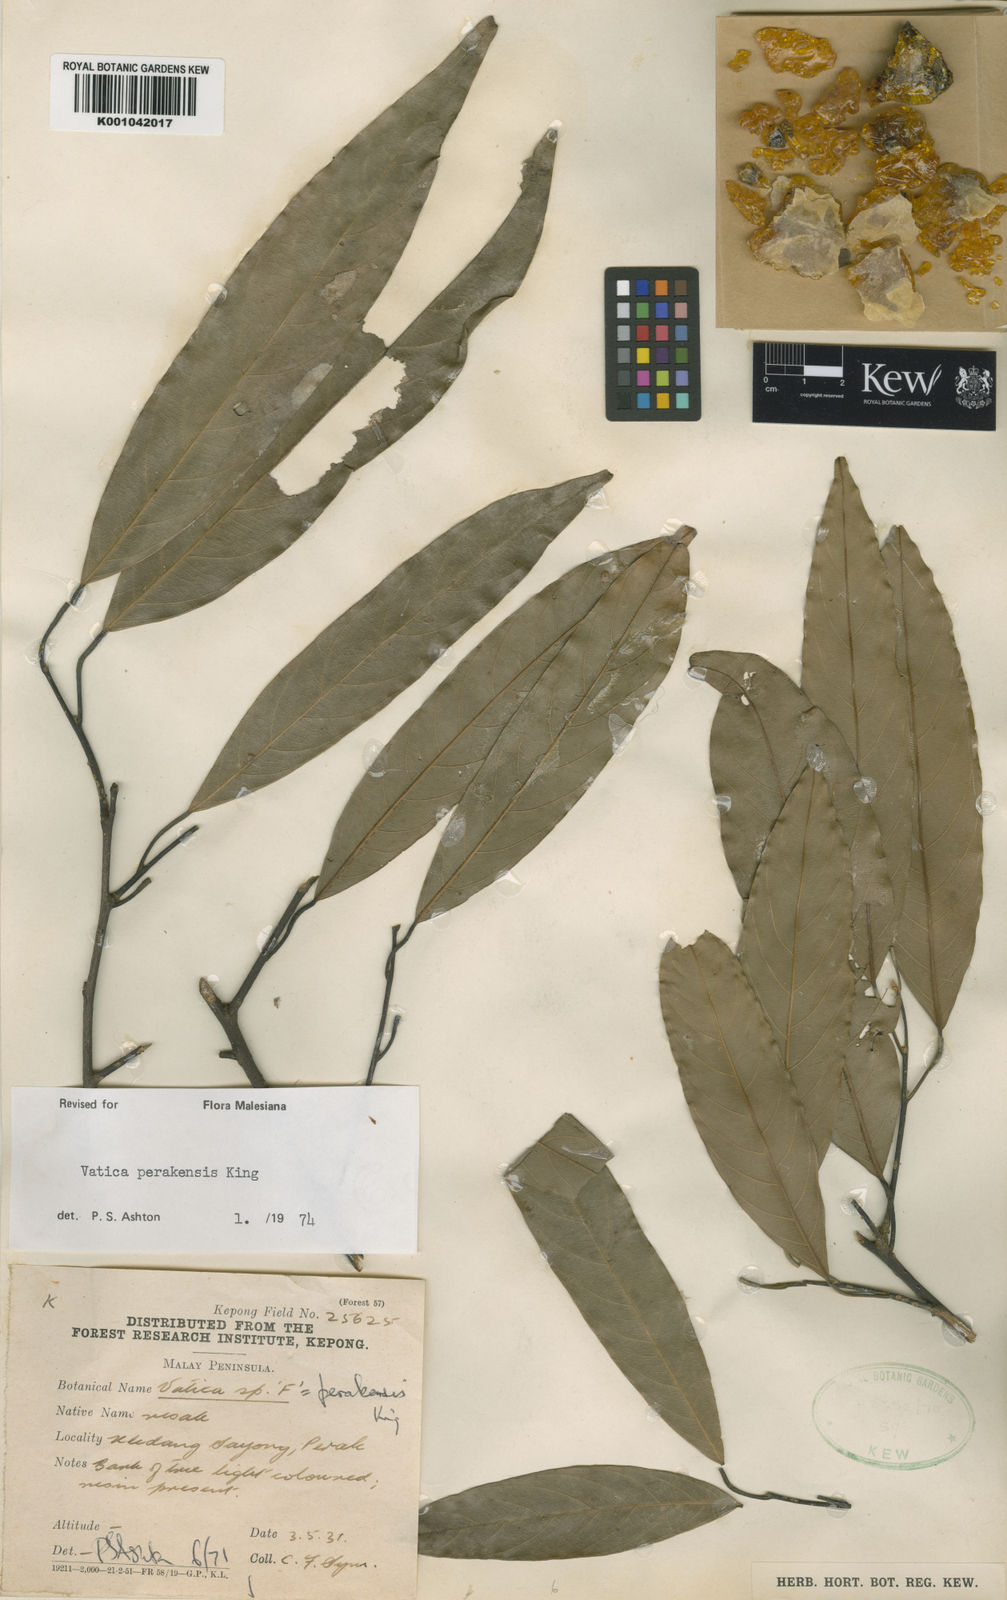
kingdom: Plantae
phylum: Tracheophyta
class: Magnoliopsida
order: Malvales
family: Dipterocarpaceae
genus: Vatica
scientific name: Vatica perakensis
